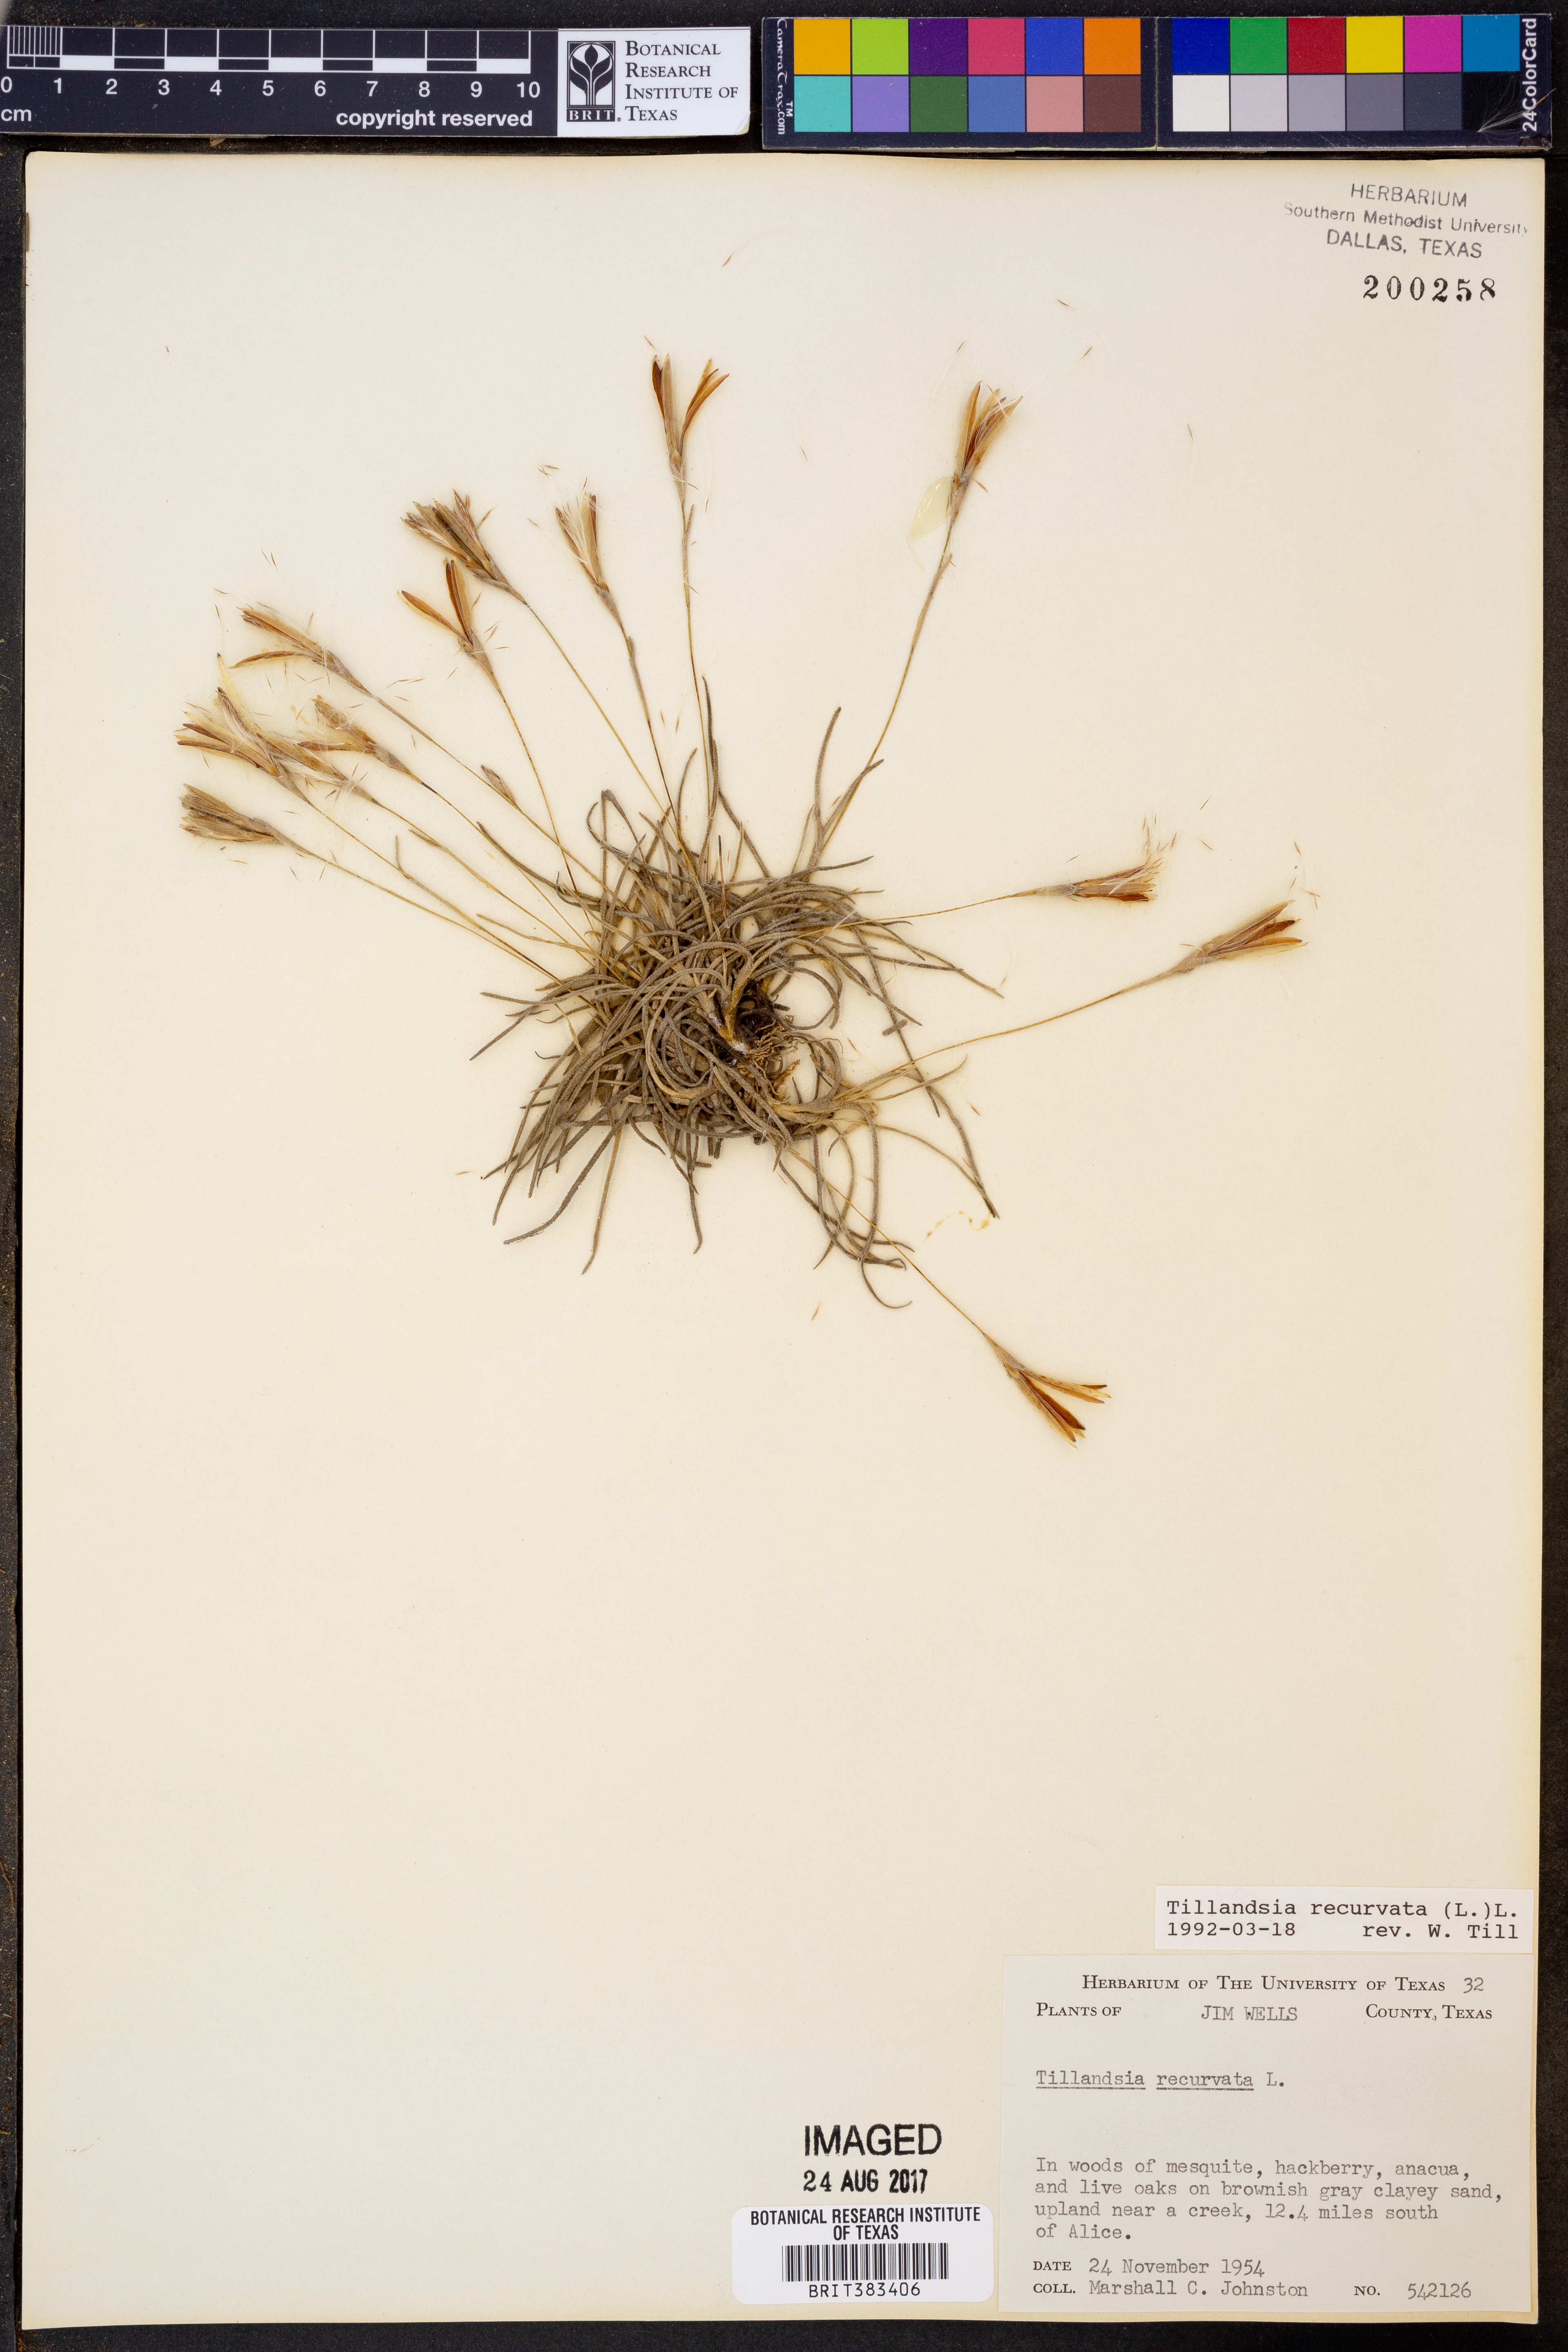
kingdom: Plantae
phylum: Tracheophyta
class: Liliopsida
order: Poales
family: Bromeliaceae
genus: Tillandsia
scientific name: Tillandsia recurvata
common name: Small ballmoss
